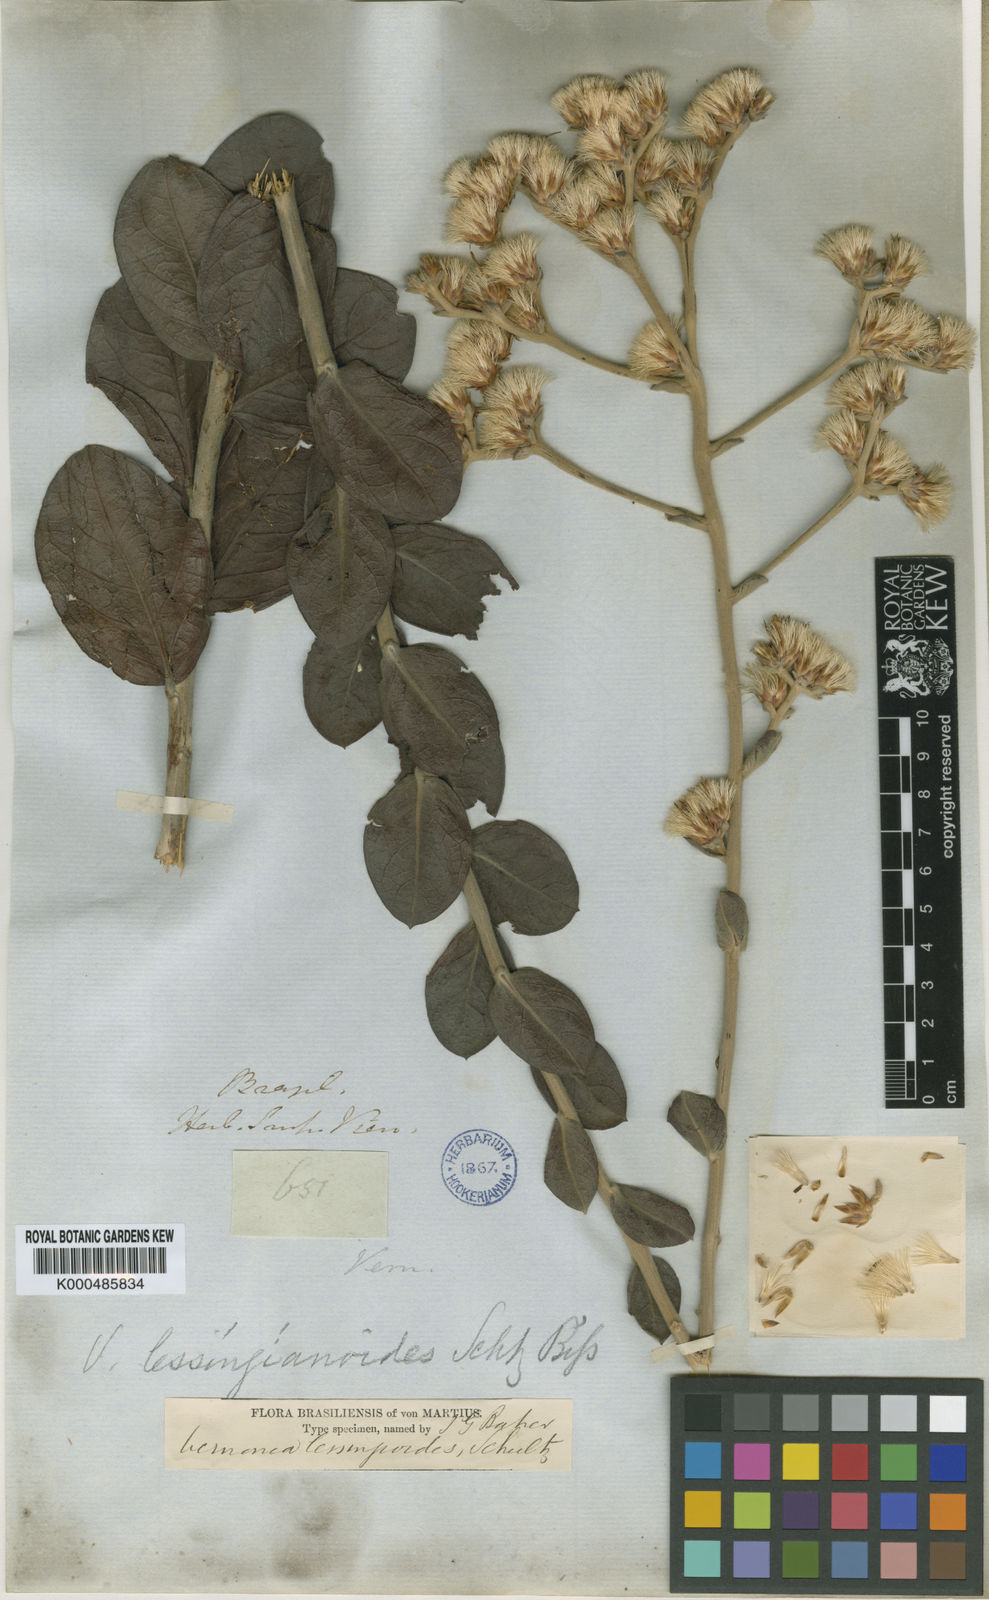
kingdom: Plantae
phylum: Tracheophyta
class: Magnoliopsida
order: Asterales
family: Asteraceae
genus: Vernonia
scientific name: Vernonia
